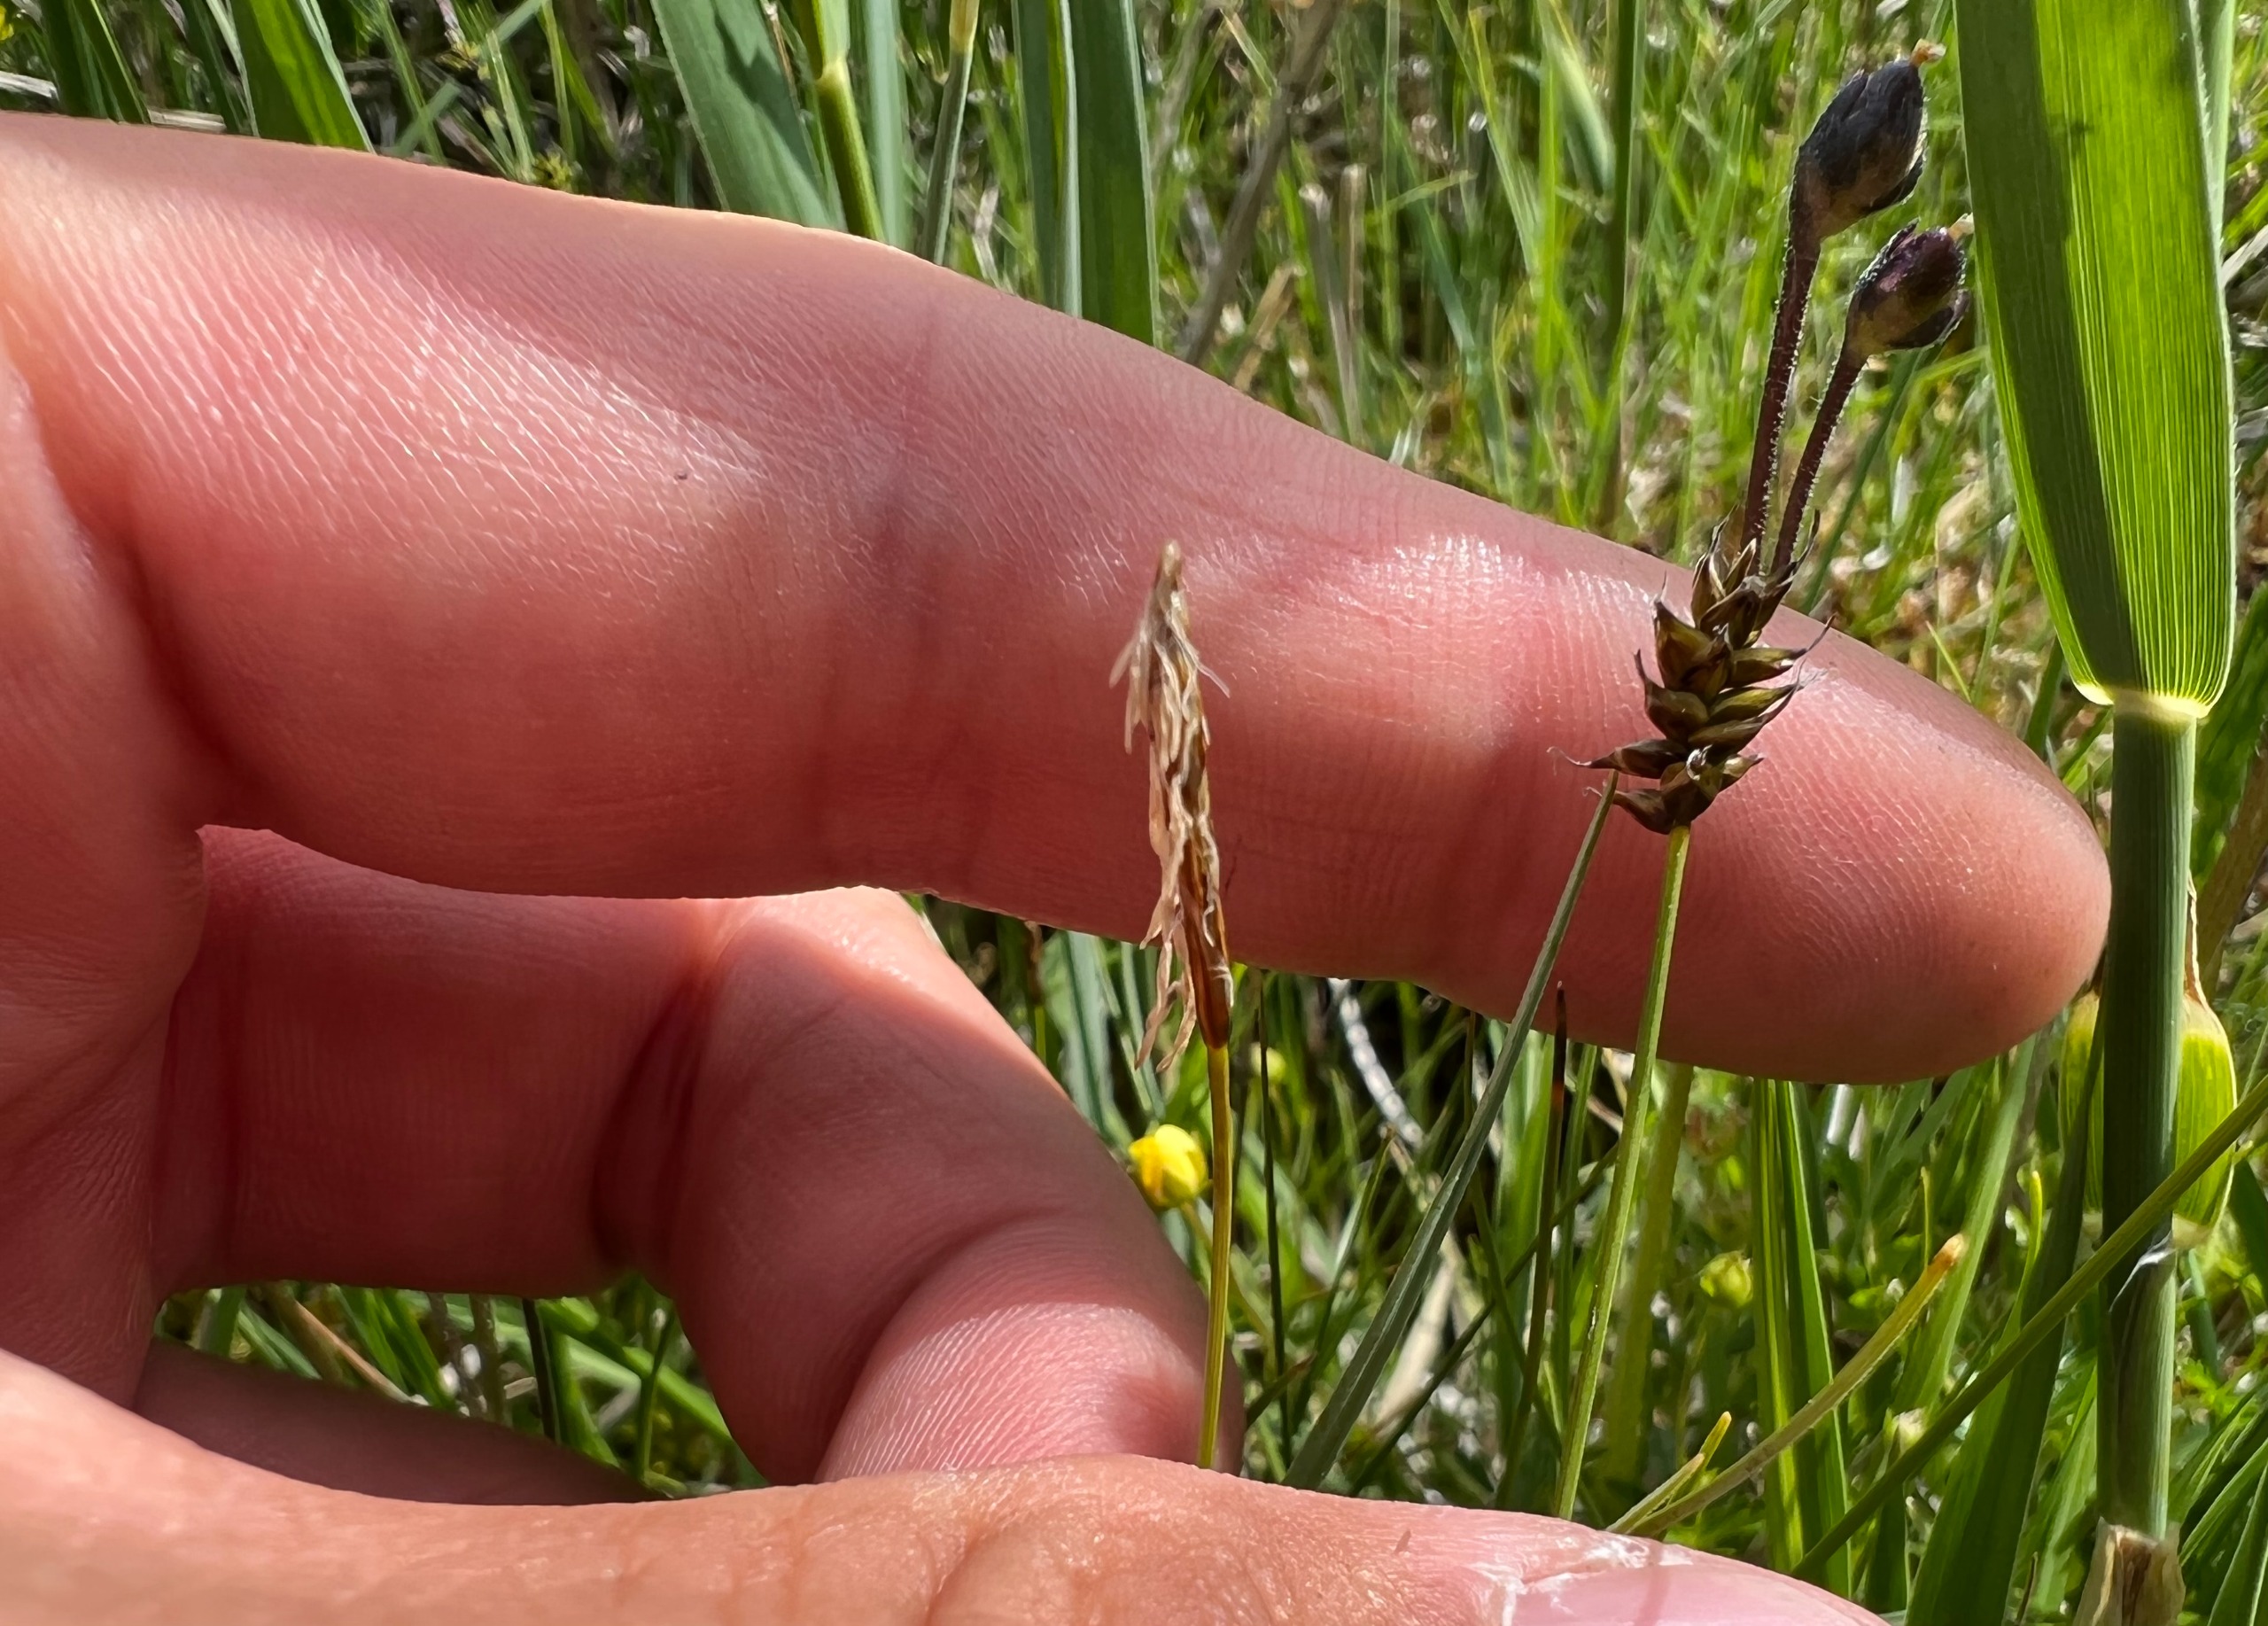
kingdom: Plantae
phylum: Tracheophyta
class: Liliopsida
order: Poales
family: Cyperaceae
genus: Carex
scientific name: Carex dioica
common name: Tvebo star
